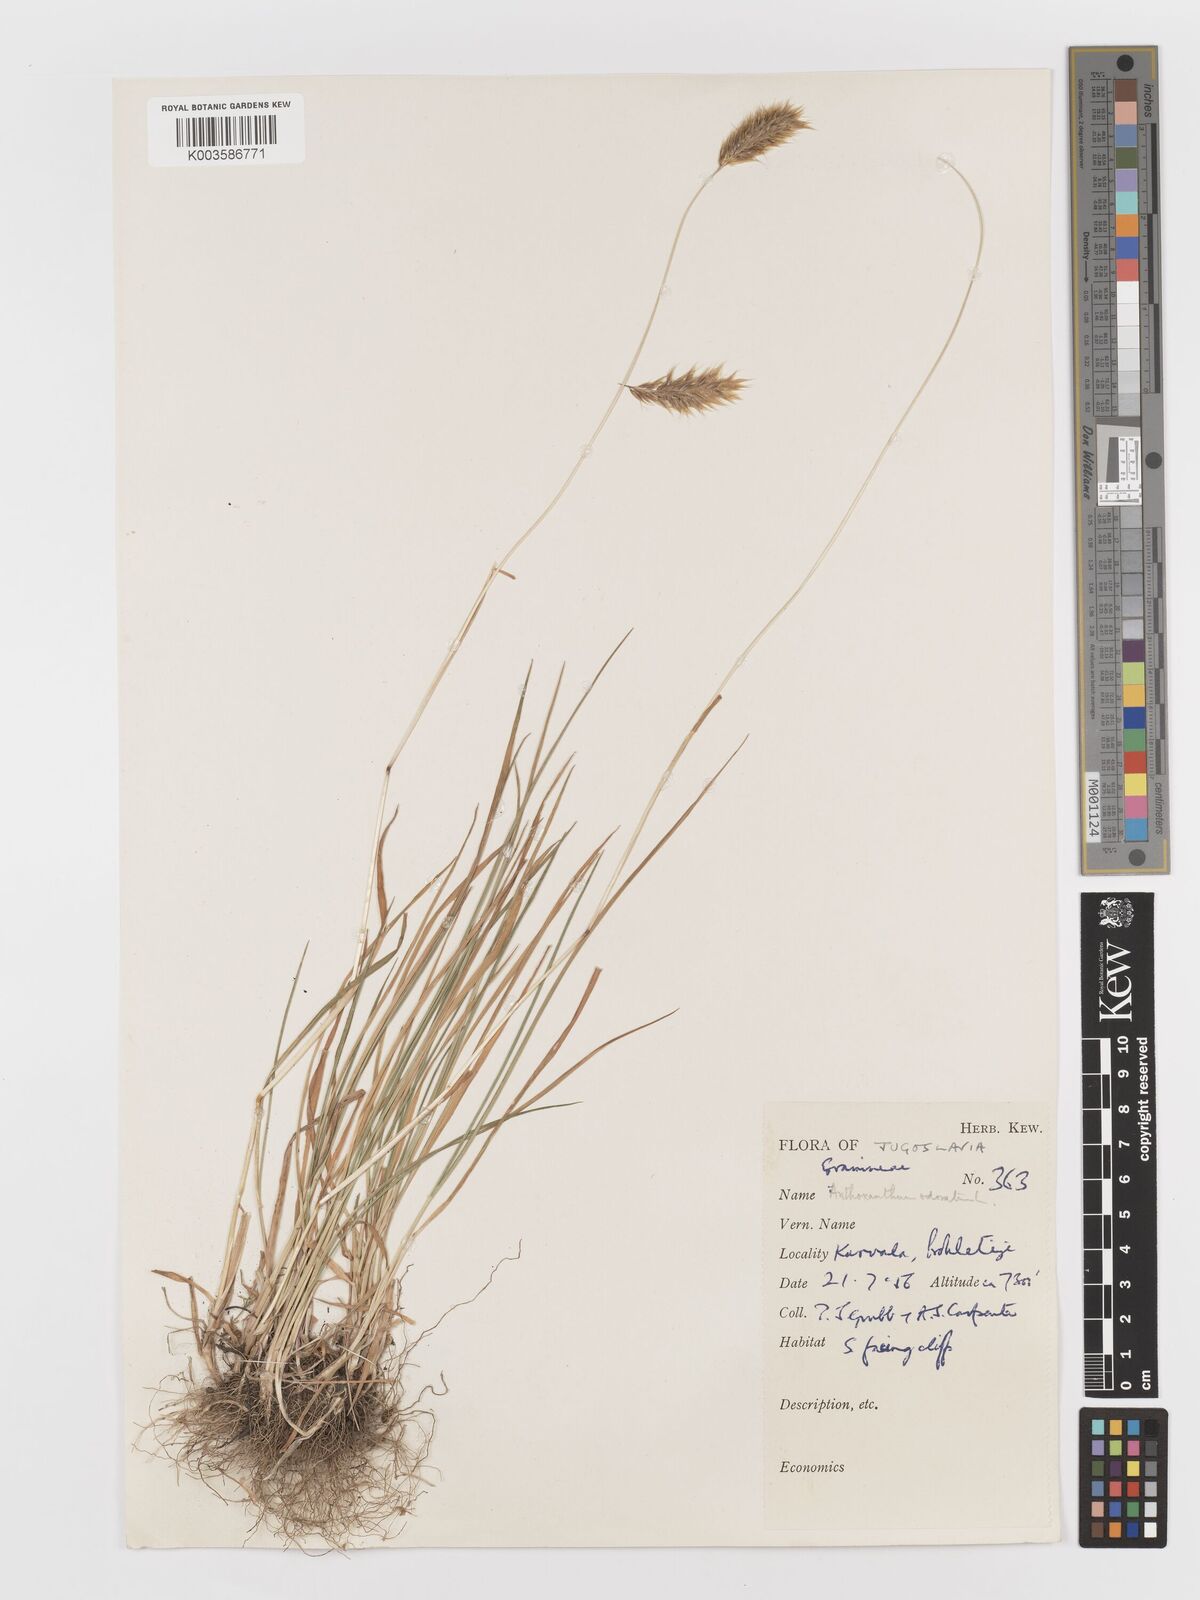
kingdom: Plantae
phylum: Tracheophyta
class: Liliopsida
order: Poales
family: Poaceae
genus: Anthoxanthum
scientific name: Anthoxanthum odoratum
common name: Sweet vernalgrass
